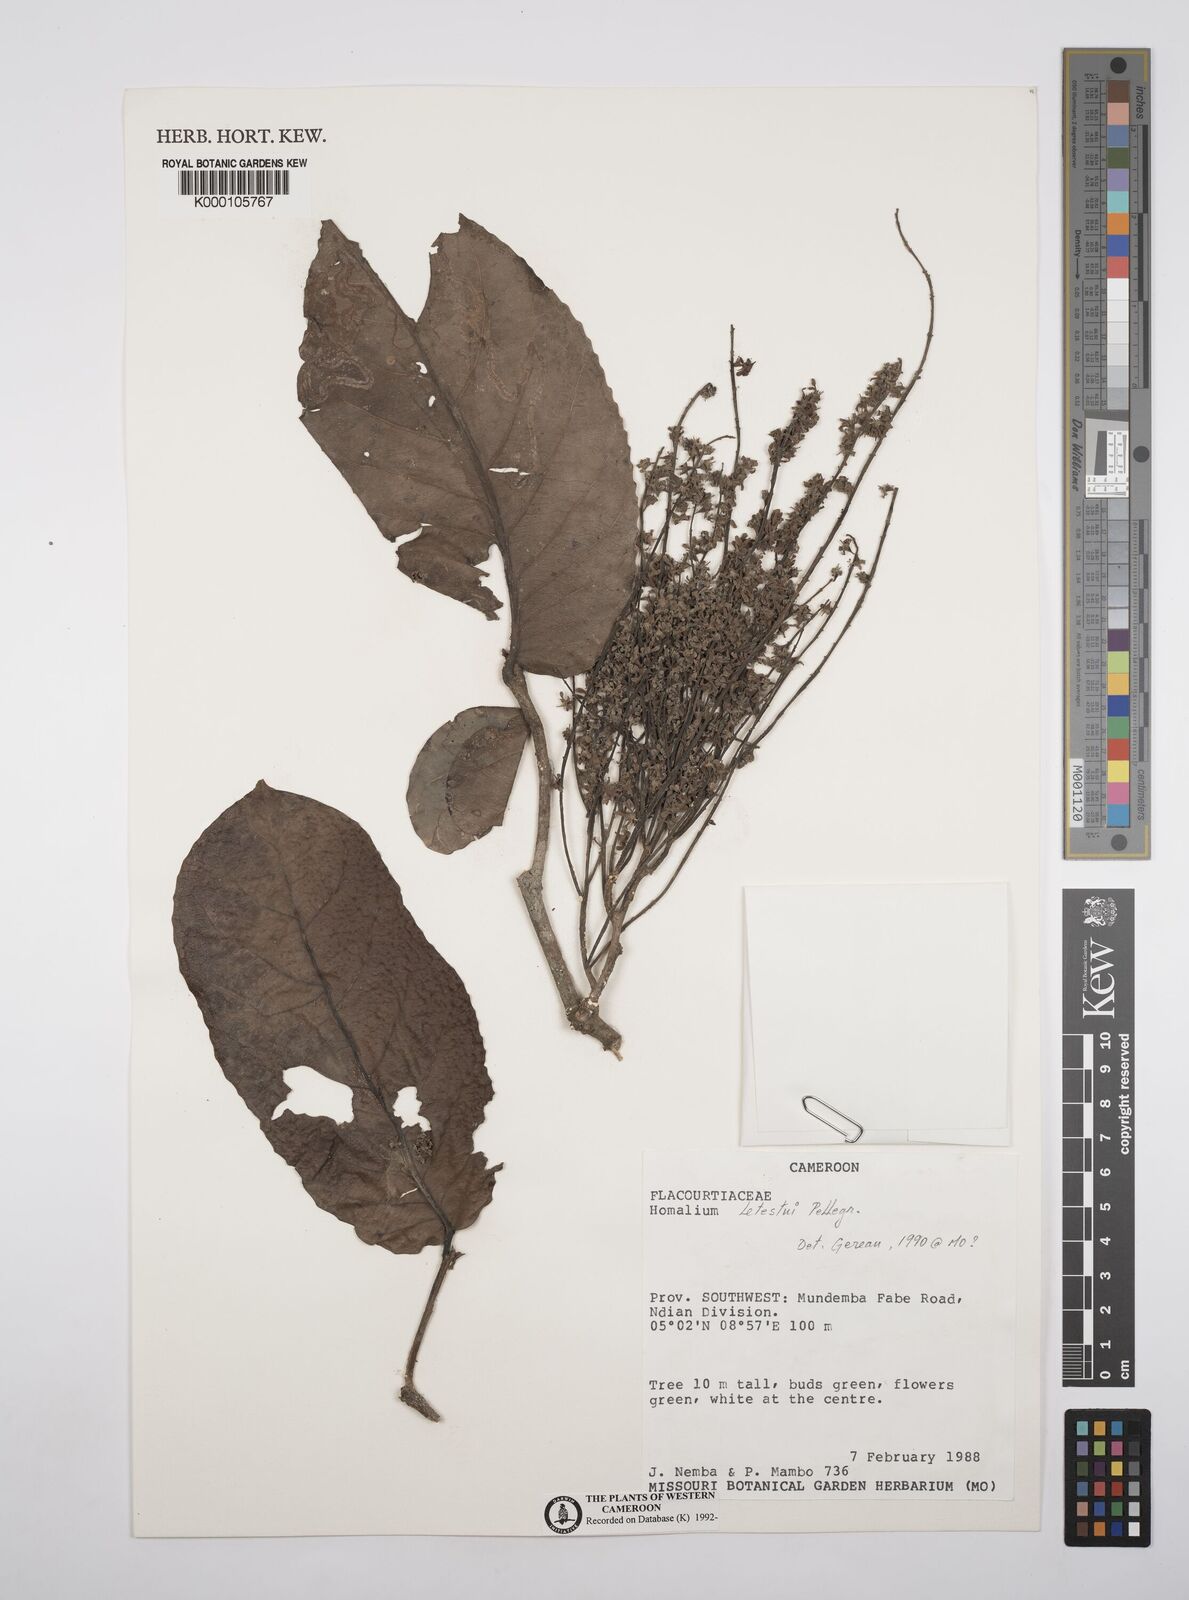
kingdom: Plantae
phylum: Tracheophyta
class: Magnoliopsida
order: Malpighiales
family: Salicaceae
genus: Homalium
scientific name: Homalium letestui
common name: African homalium
